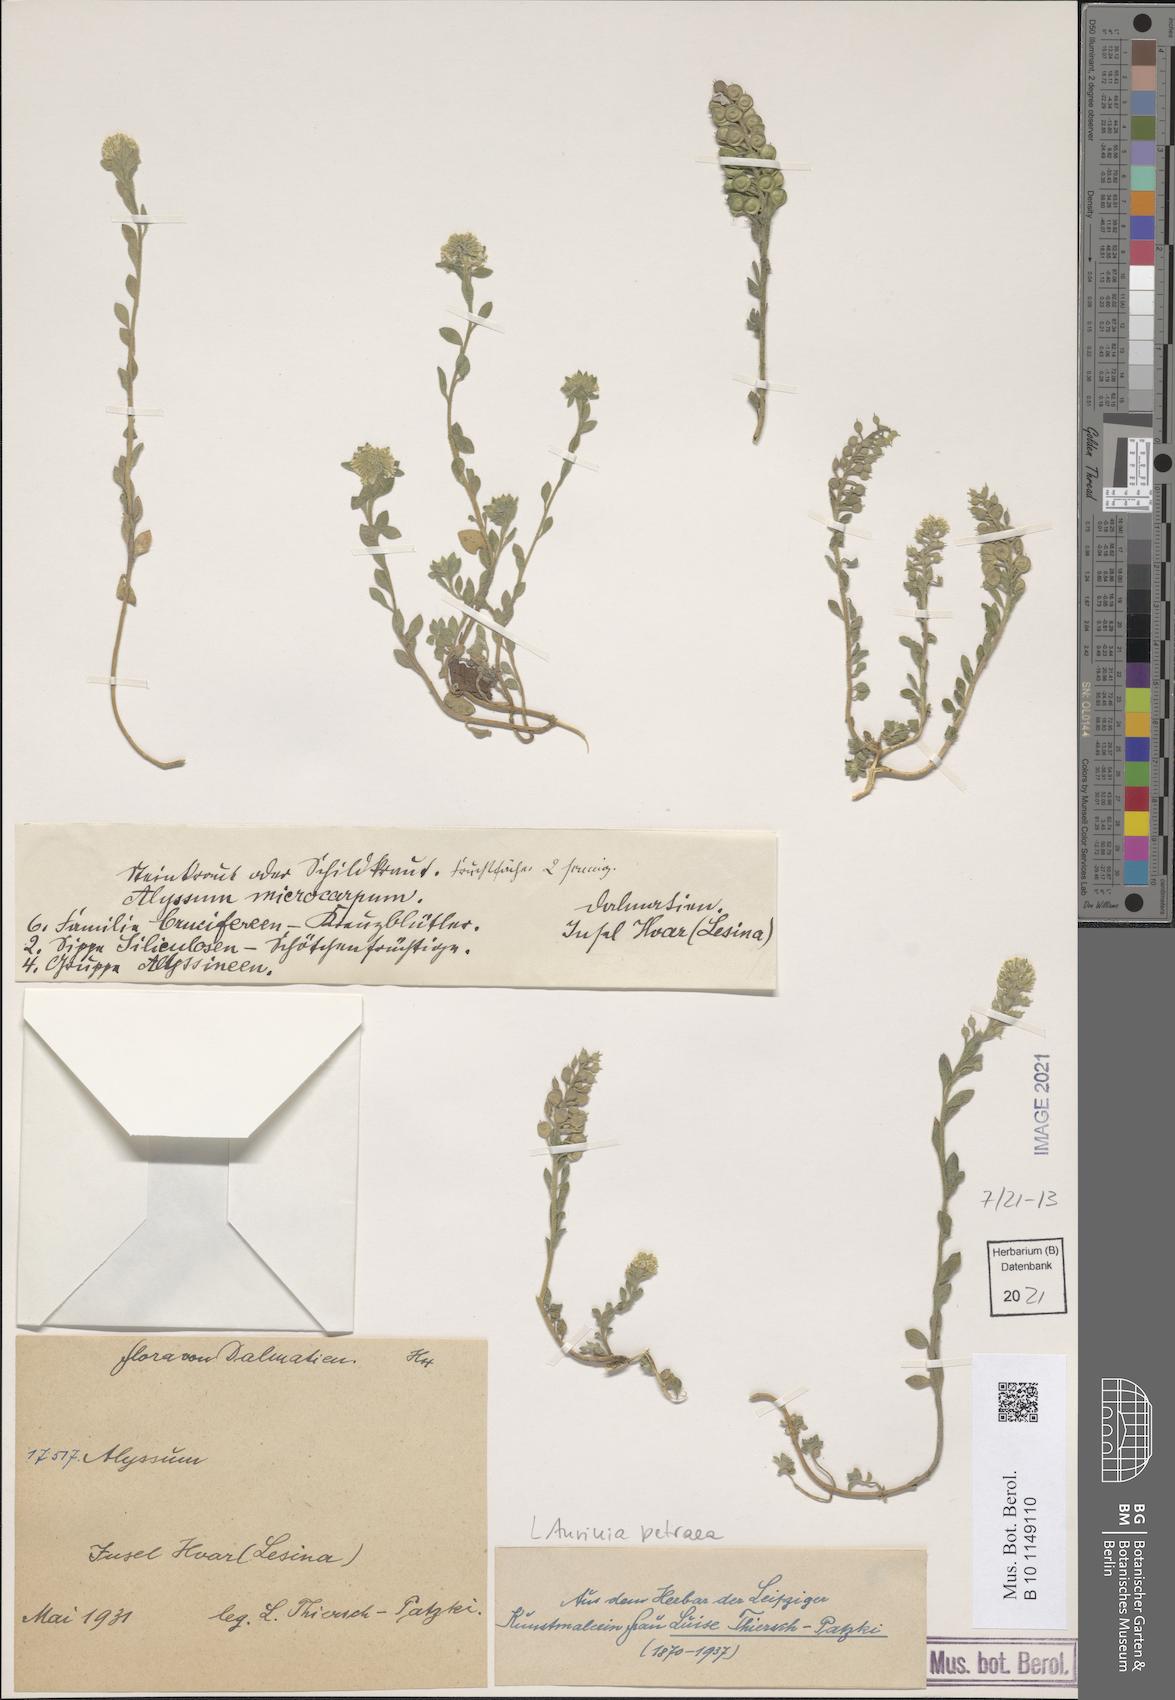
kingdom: Plantae
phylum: Tracheophyta
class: Magnoliopsida
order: Brassicales
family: Brassicaceae
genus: Aurinia
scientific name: Aurinia petraea
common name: Goldentuft
